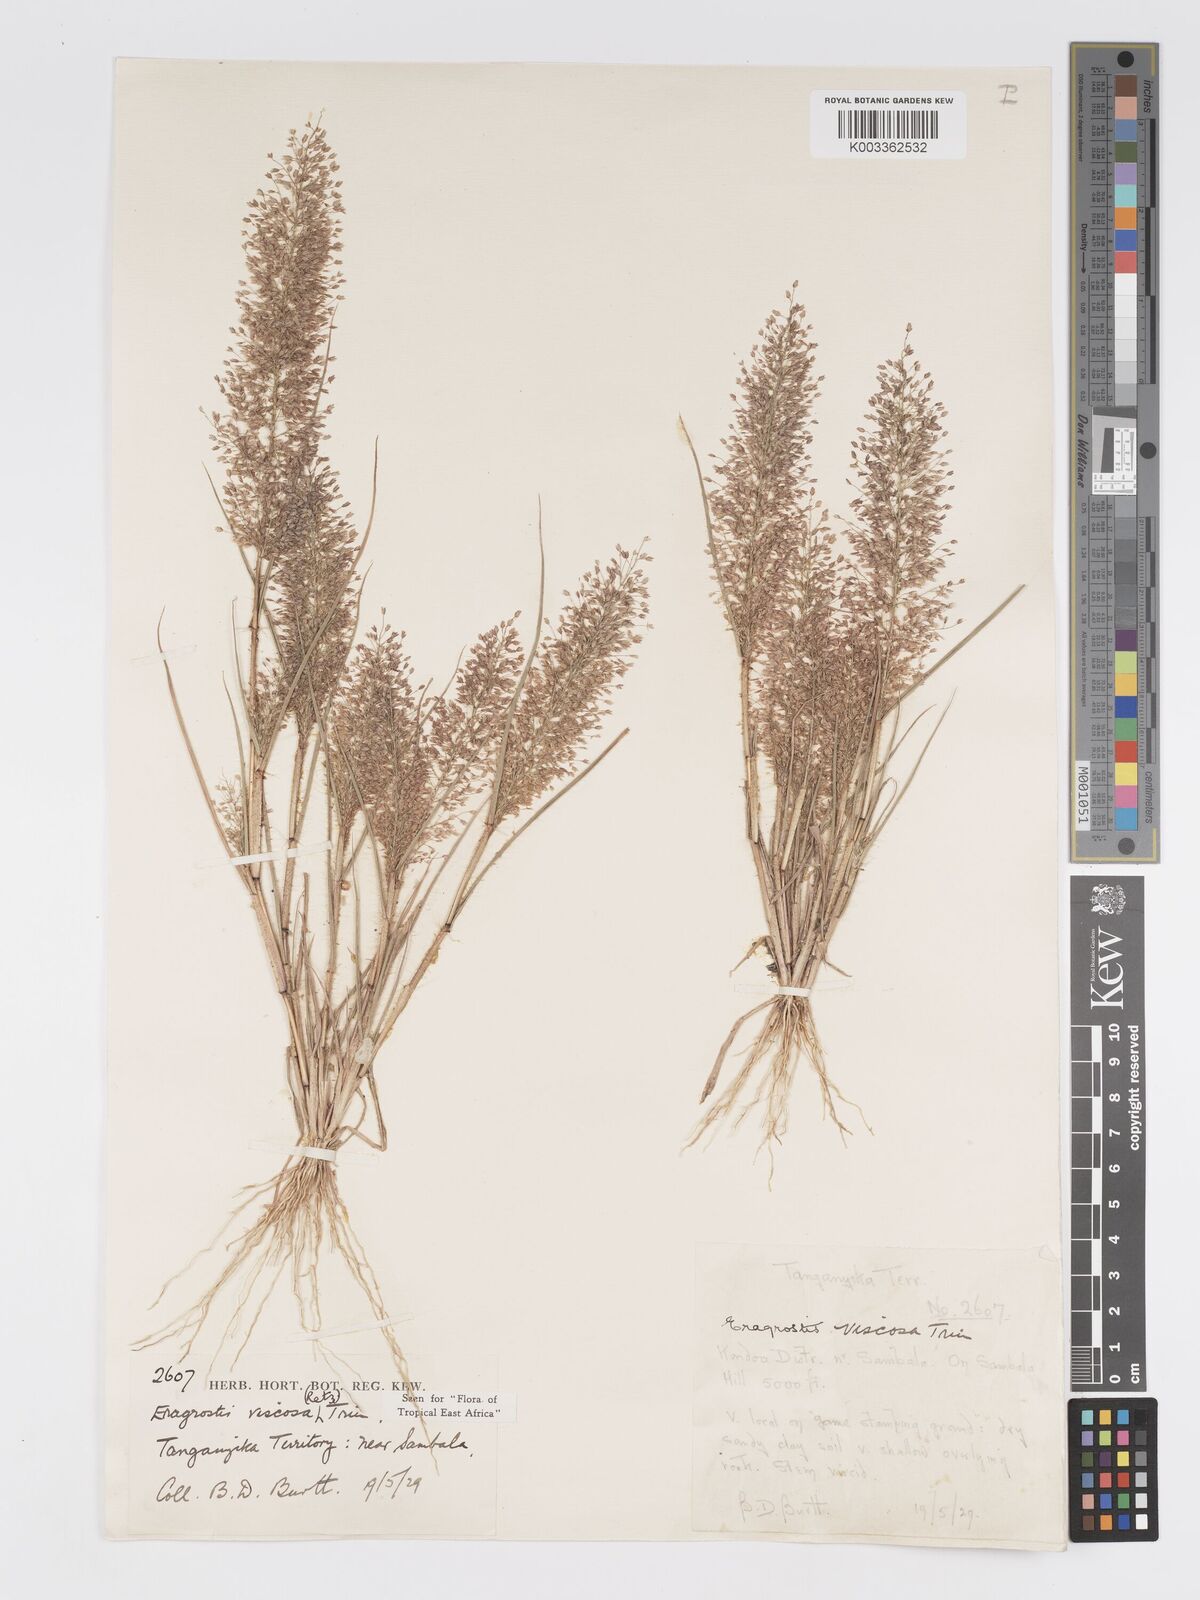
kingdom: Plantae
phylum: Tracheophyta
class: Liliopsida
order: Poales
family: Poaceae
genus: Eragrostis
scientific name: Eragrostis viscosa
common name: Sticky love grass
